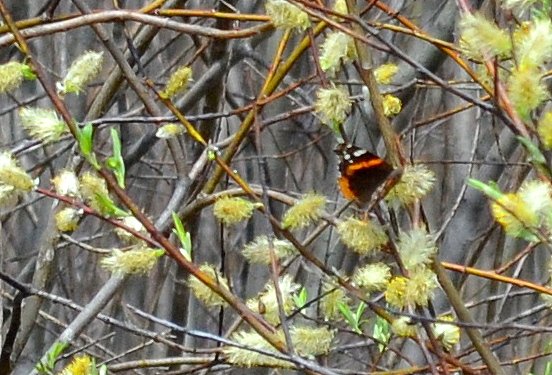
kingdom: Animalia
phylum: Arthropoda
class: Insecta
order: Lepidoptera
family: Nymphalidae
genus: Vanessa
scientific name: Vanessa atalanta
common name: Red Admiral
